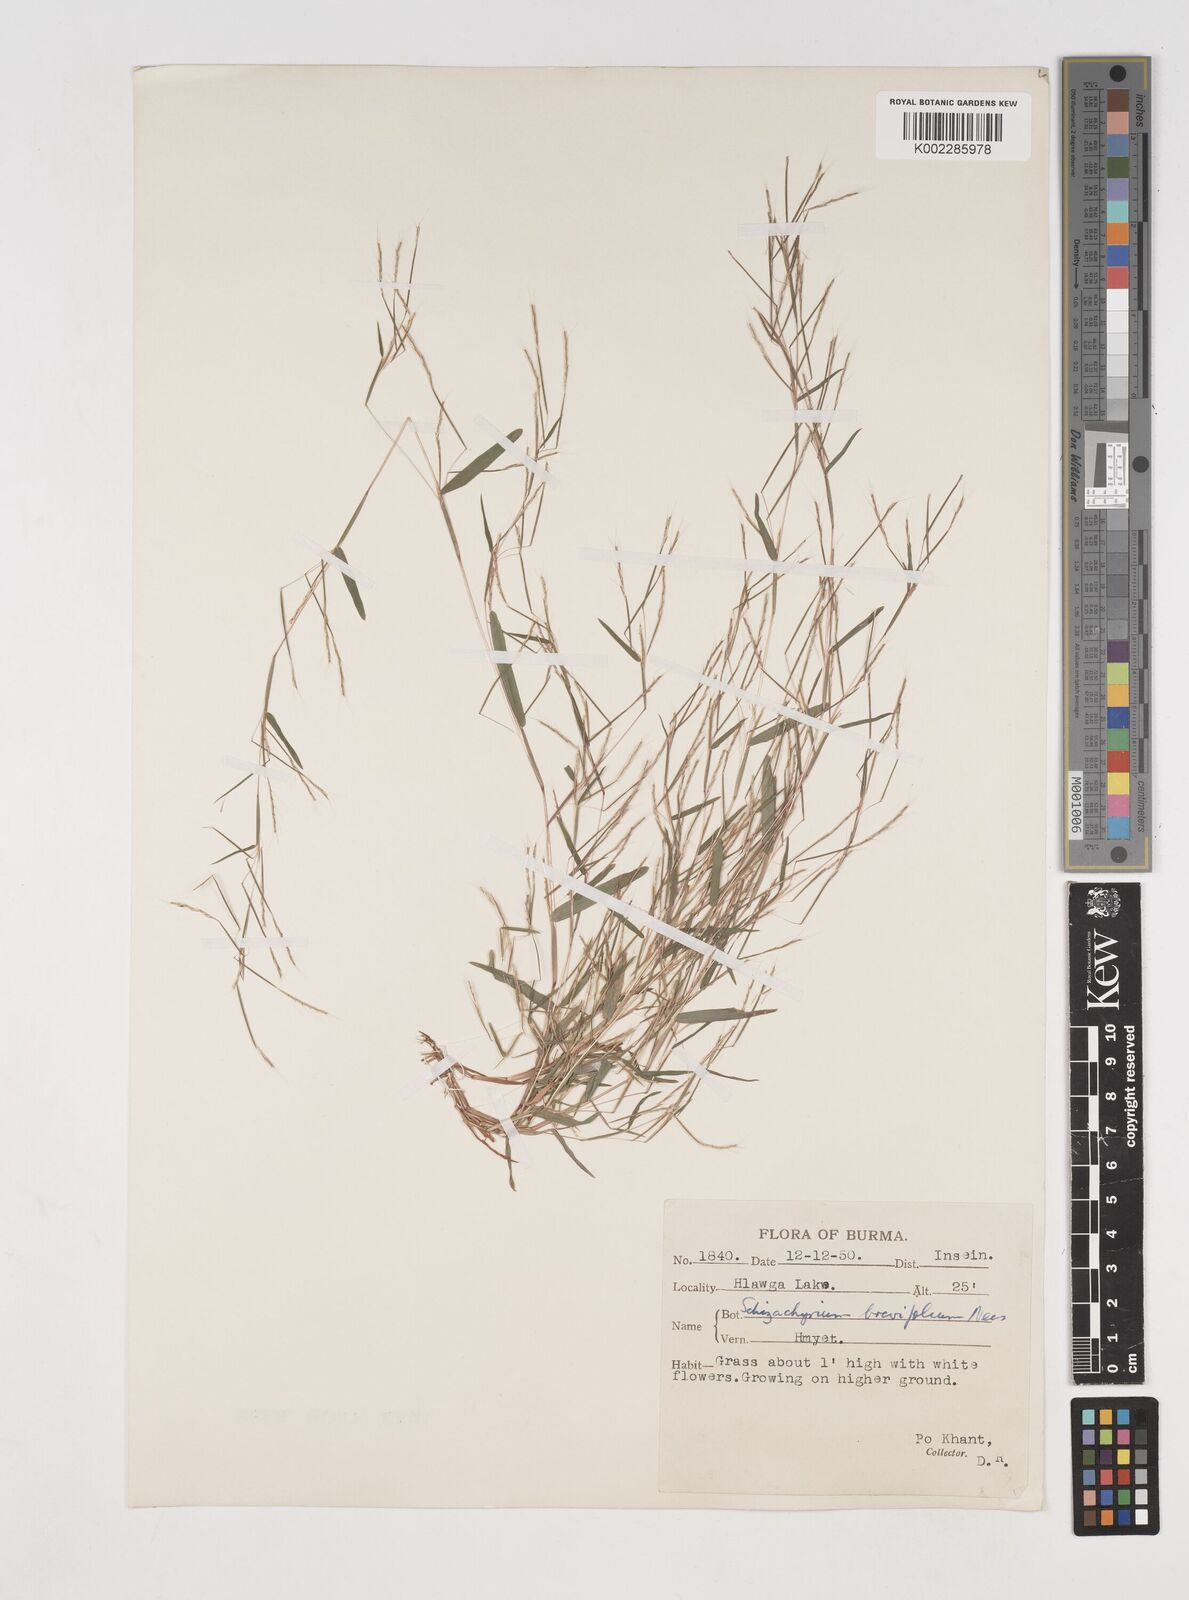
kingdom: Plantae
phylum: Tracheophyta
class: Liliopsida
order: Poales
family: Poaceae
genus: Schizachyrium
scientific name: Schizachyrium brevifolium
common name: Serillo dulce
